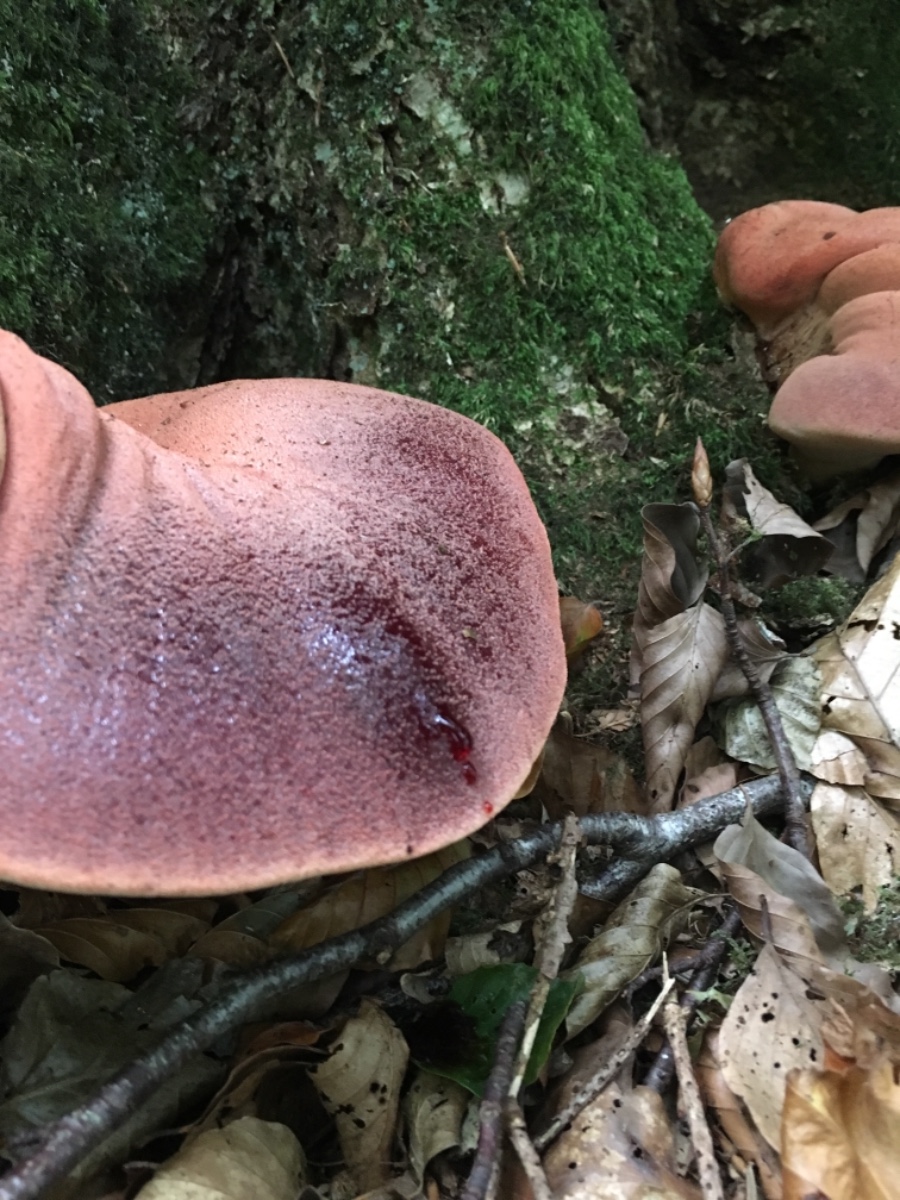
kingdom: Fungi
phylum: Basidiomycota
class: Agaricomycetes
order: Agaricales
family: Fistulinaceae
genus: Fistulina
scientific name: Fistulina hepatica
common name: oksetunge
